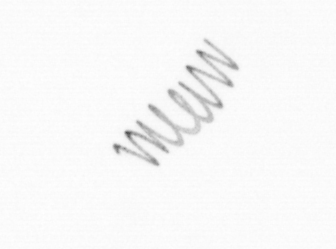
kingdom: Chromista
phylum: Ochrophyta
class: Bacillariophyceae
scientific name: Bacillariophyceae
